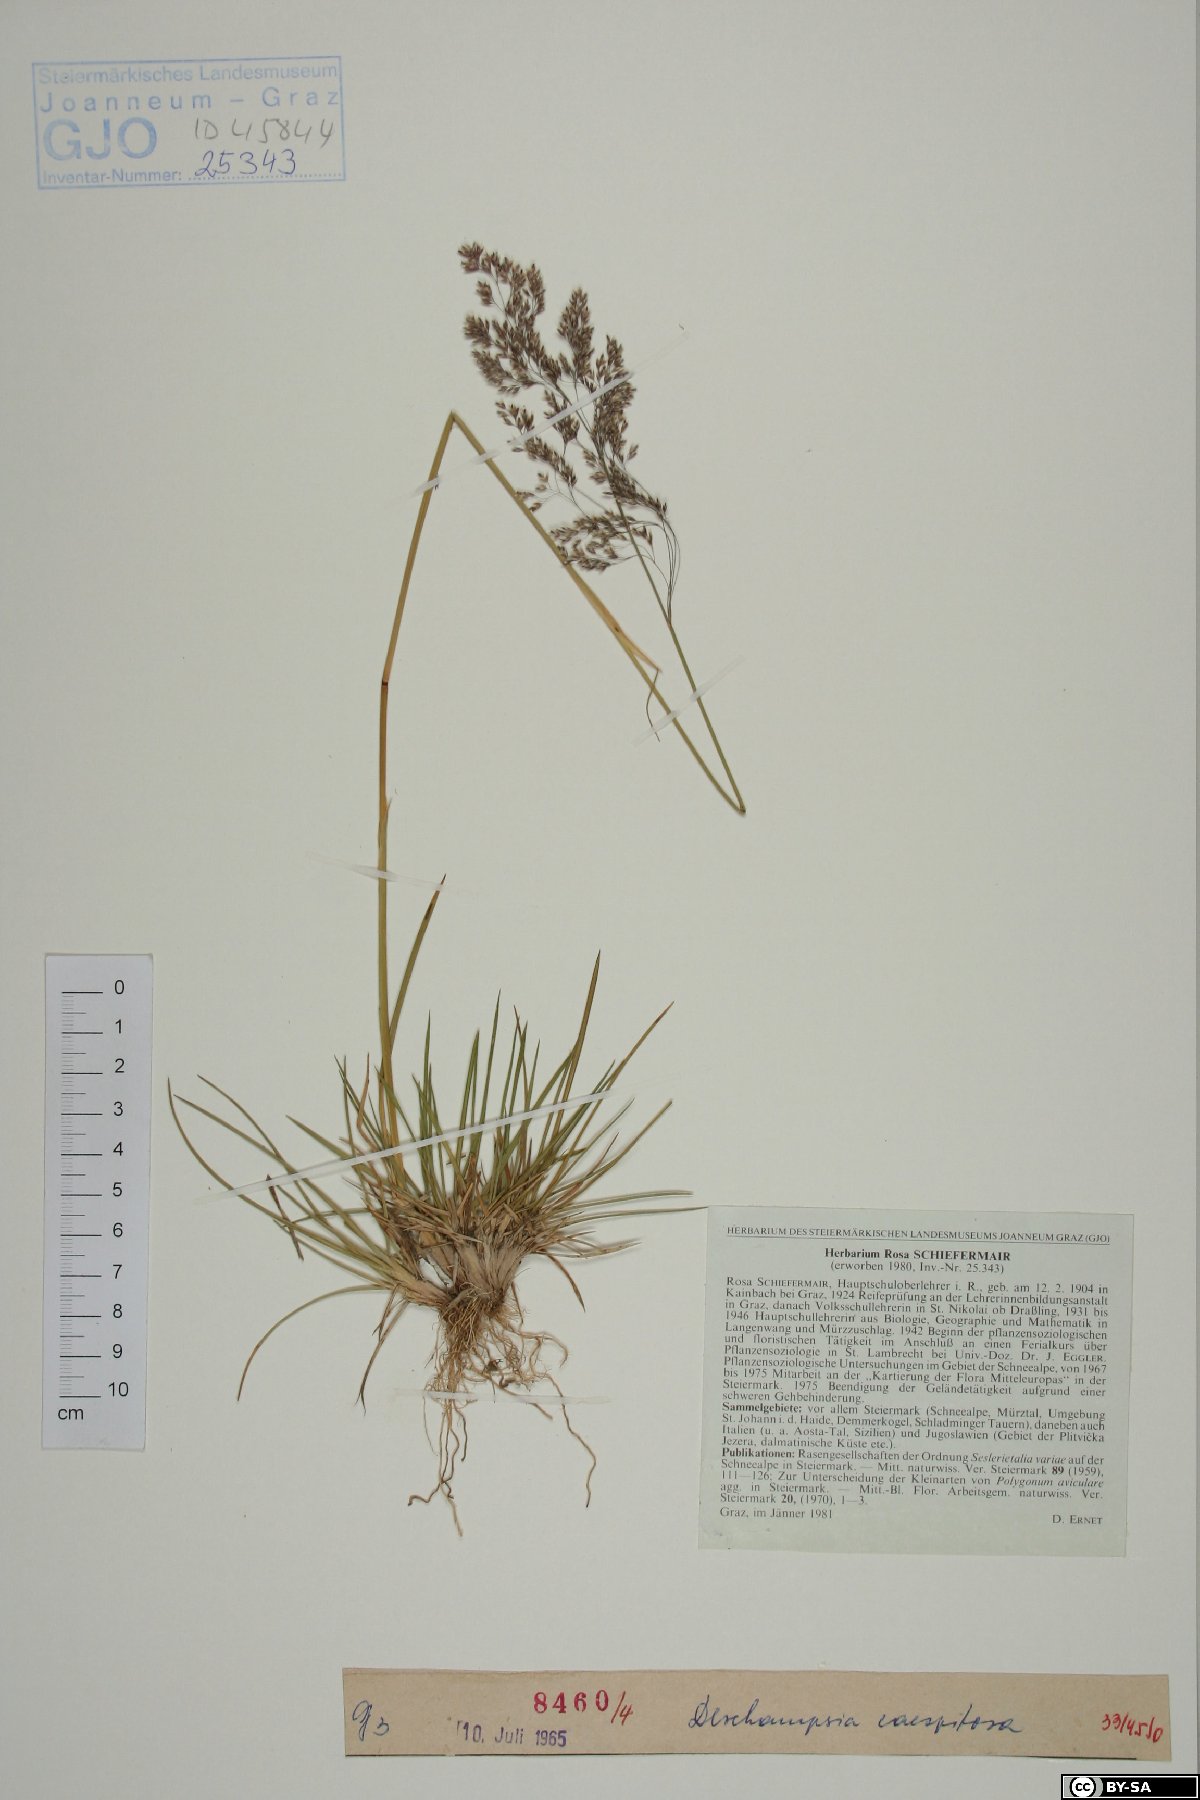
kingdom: Plantae
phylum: Tracheophyta
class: Liliopsida
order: Poales
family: Poaceae
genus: Deschampsia
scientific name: Deschampsia cespitosa
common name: Tufted hair-grass
